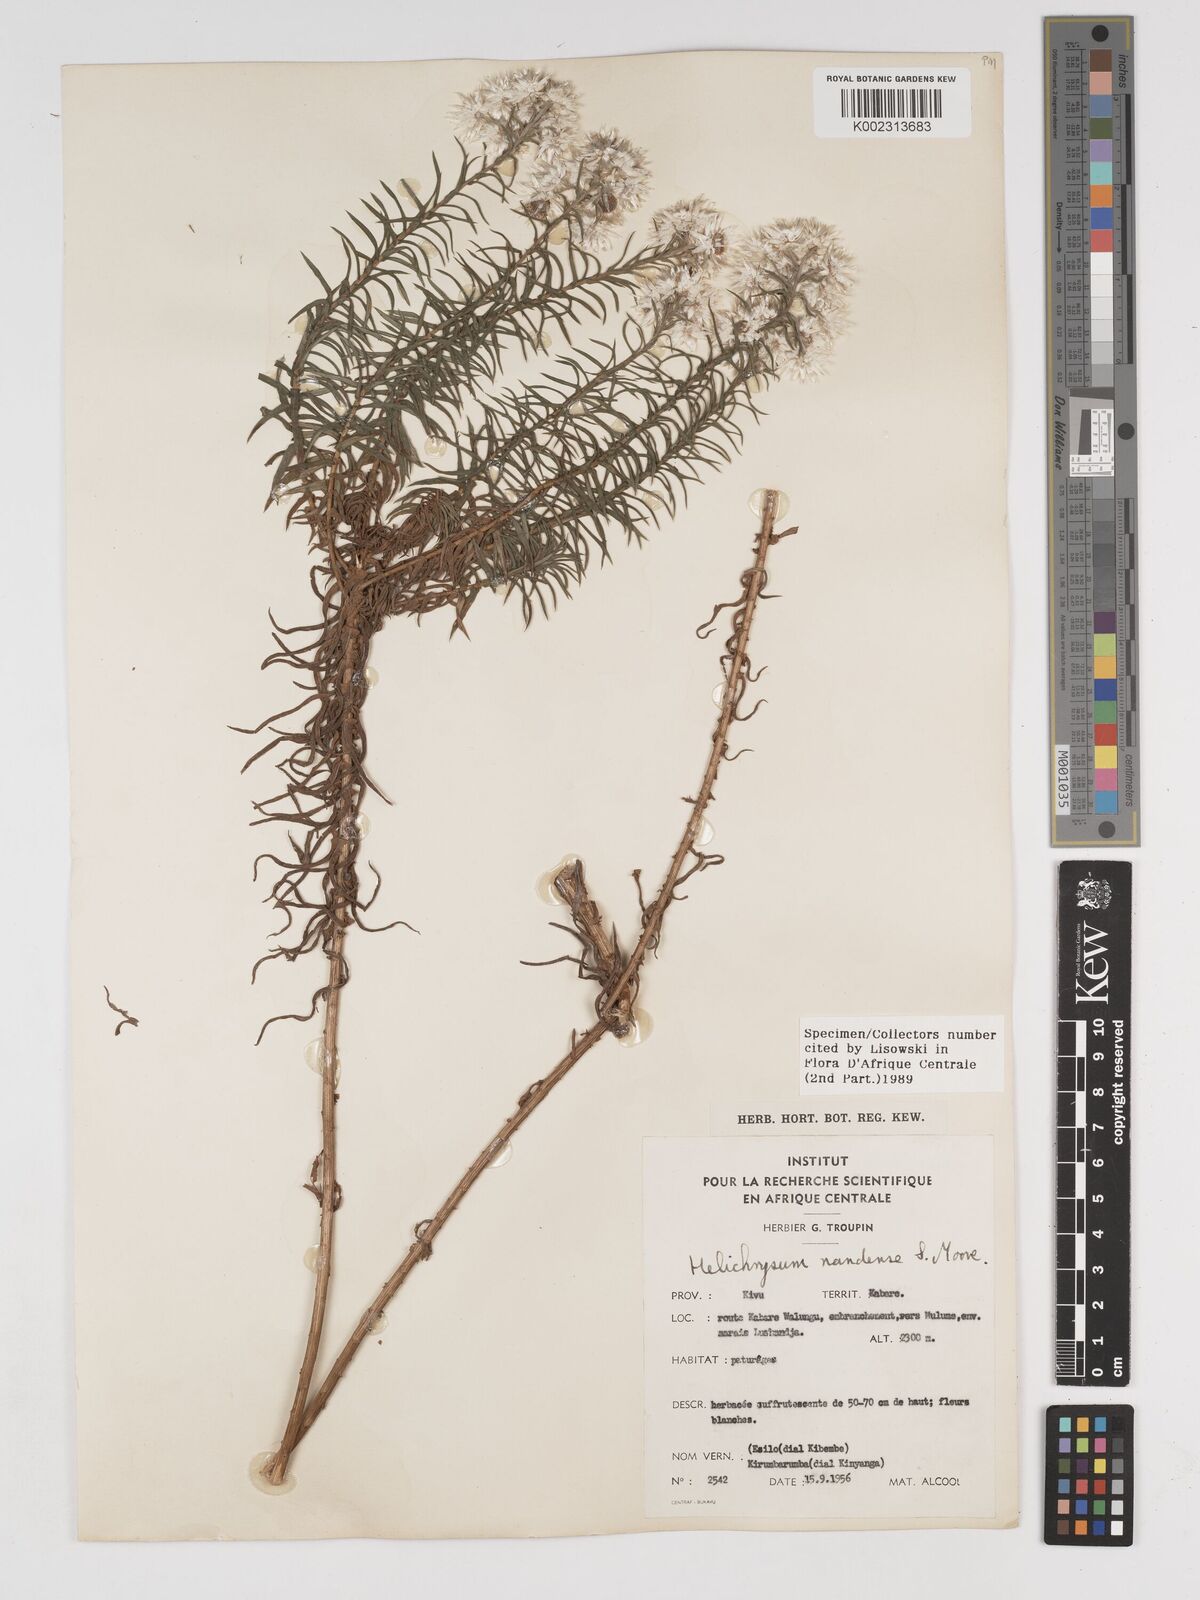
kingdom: Plantae
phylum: Tracheophyta
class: Magnoliopsida
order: Asterales
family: Asteraceae
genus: Helichrysum
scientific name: Helichrysum argyranthum
